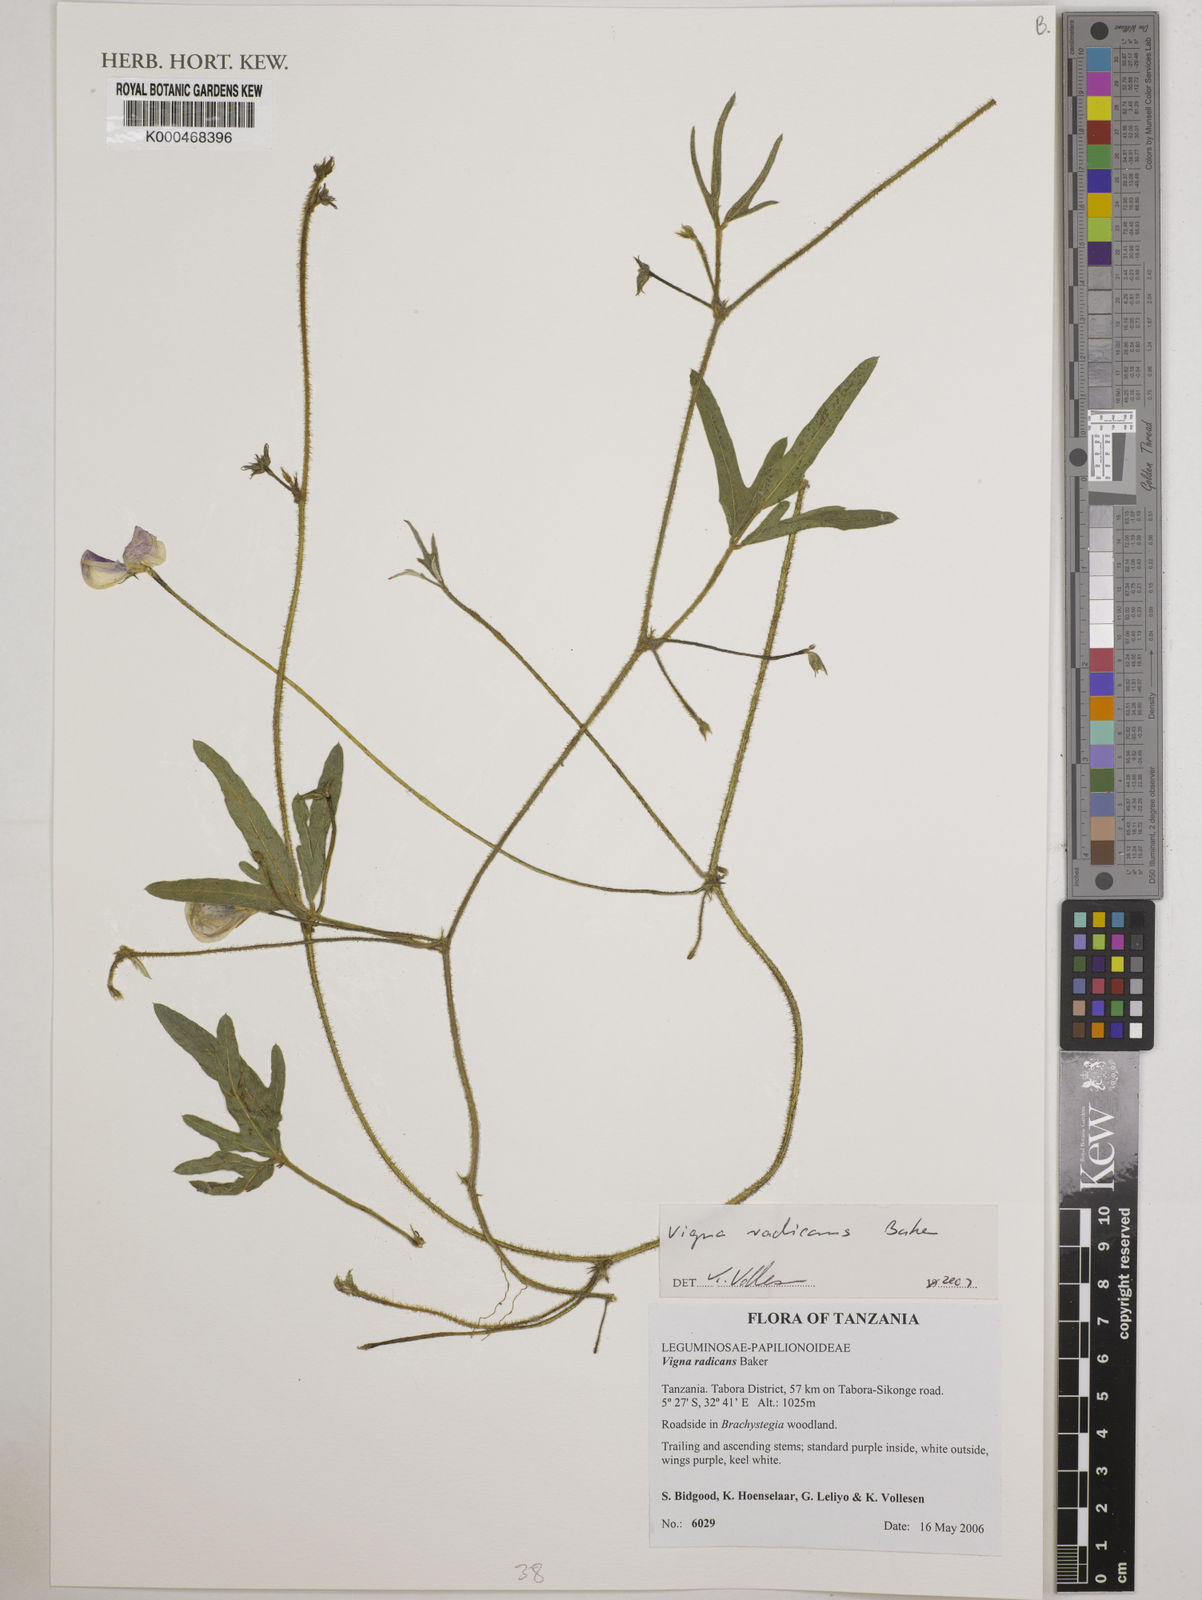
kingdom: Plantae
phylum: Tracheophyta
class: Magnoliopsida
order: Fabales
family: Fabaceae
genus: Vigna
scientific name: Vigna radicans
